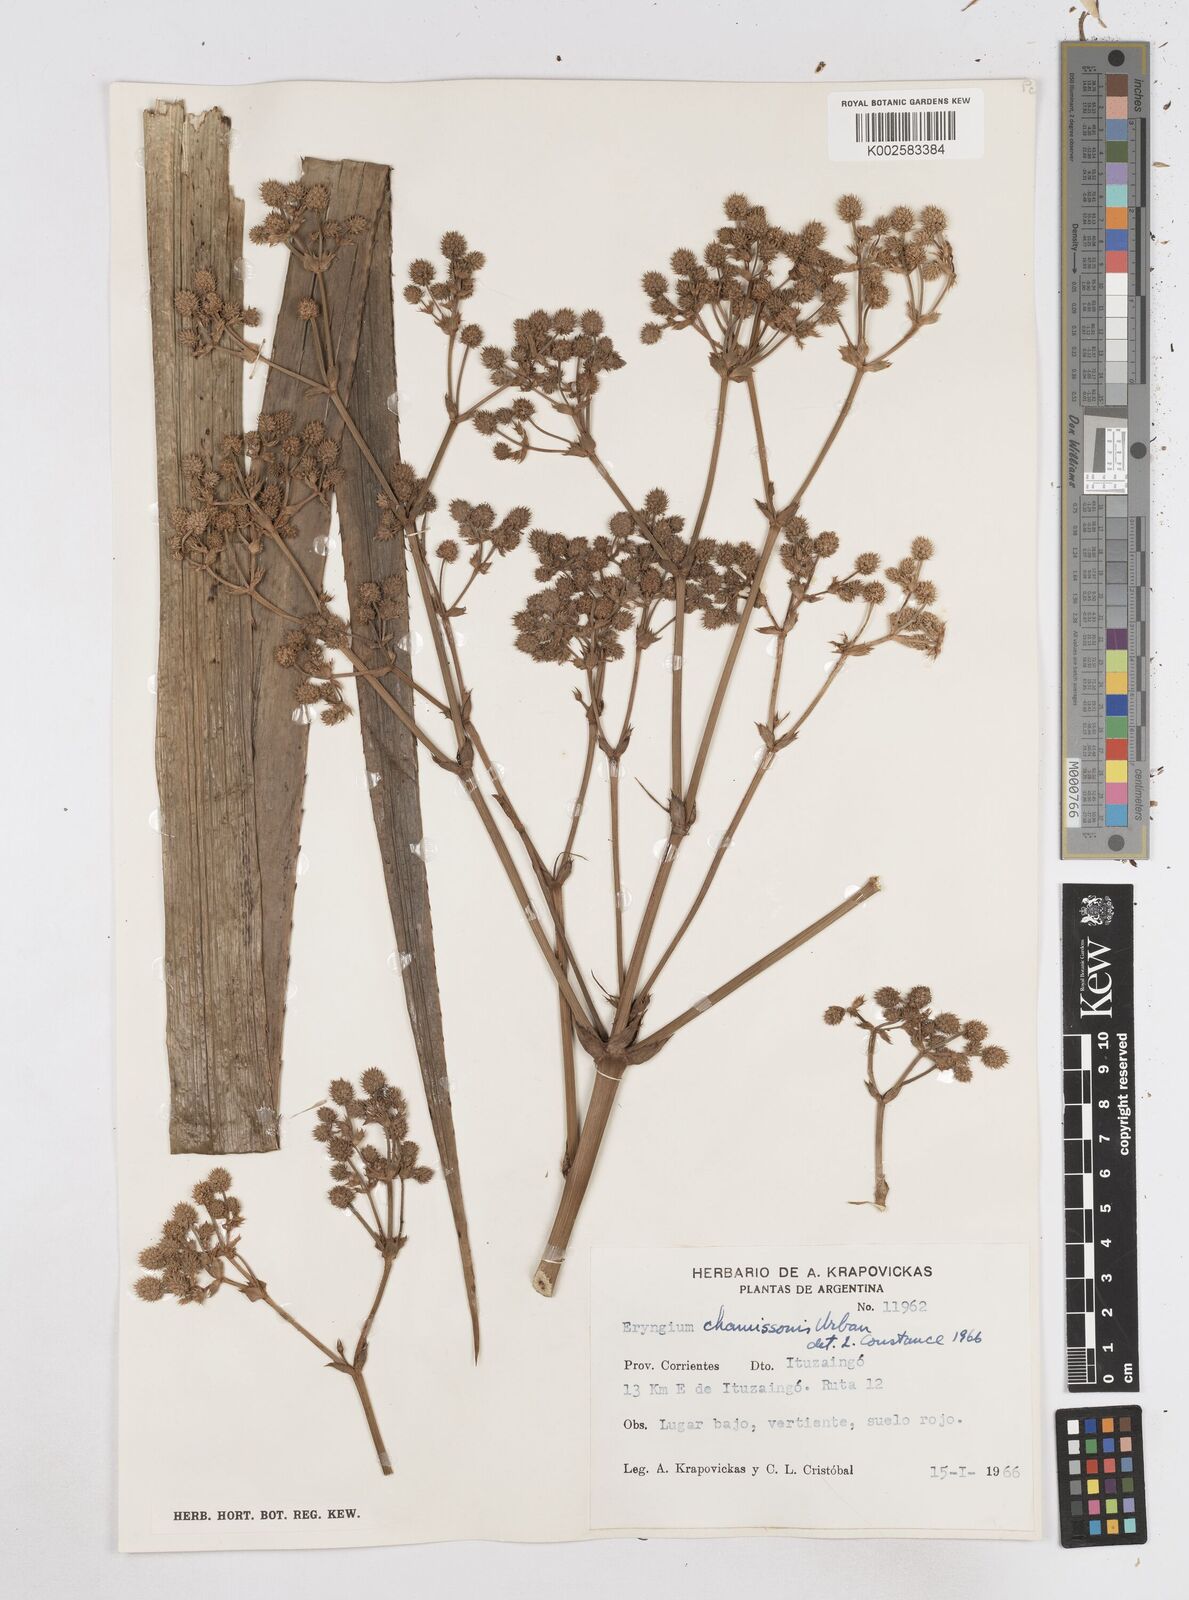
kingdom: Plantae
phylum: Tracheophyta
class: Magnoliopsida
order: Apiales
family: Apiaceae
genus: Eryngium
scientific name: Eryngium chamissonis
